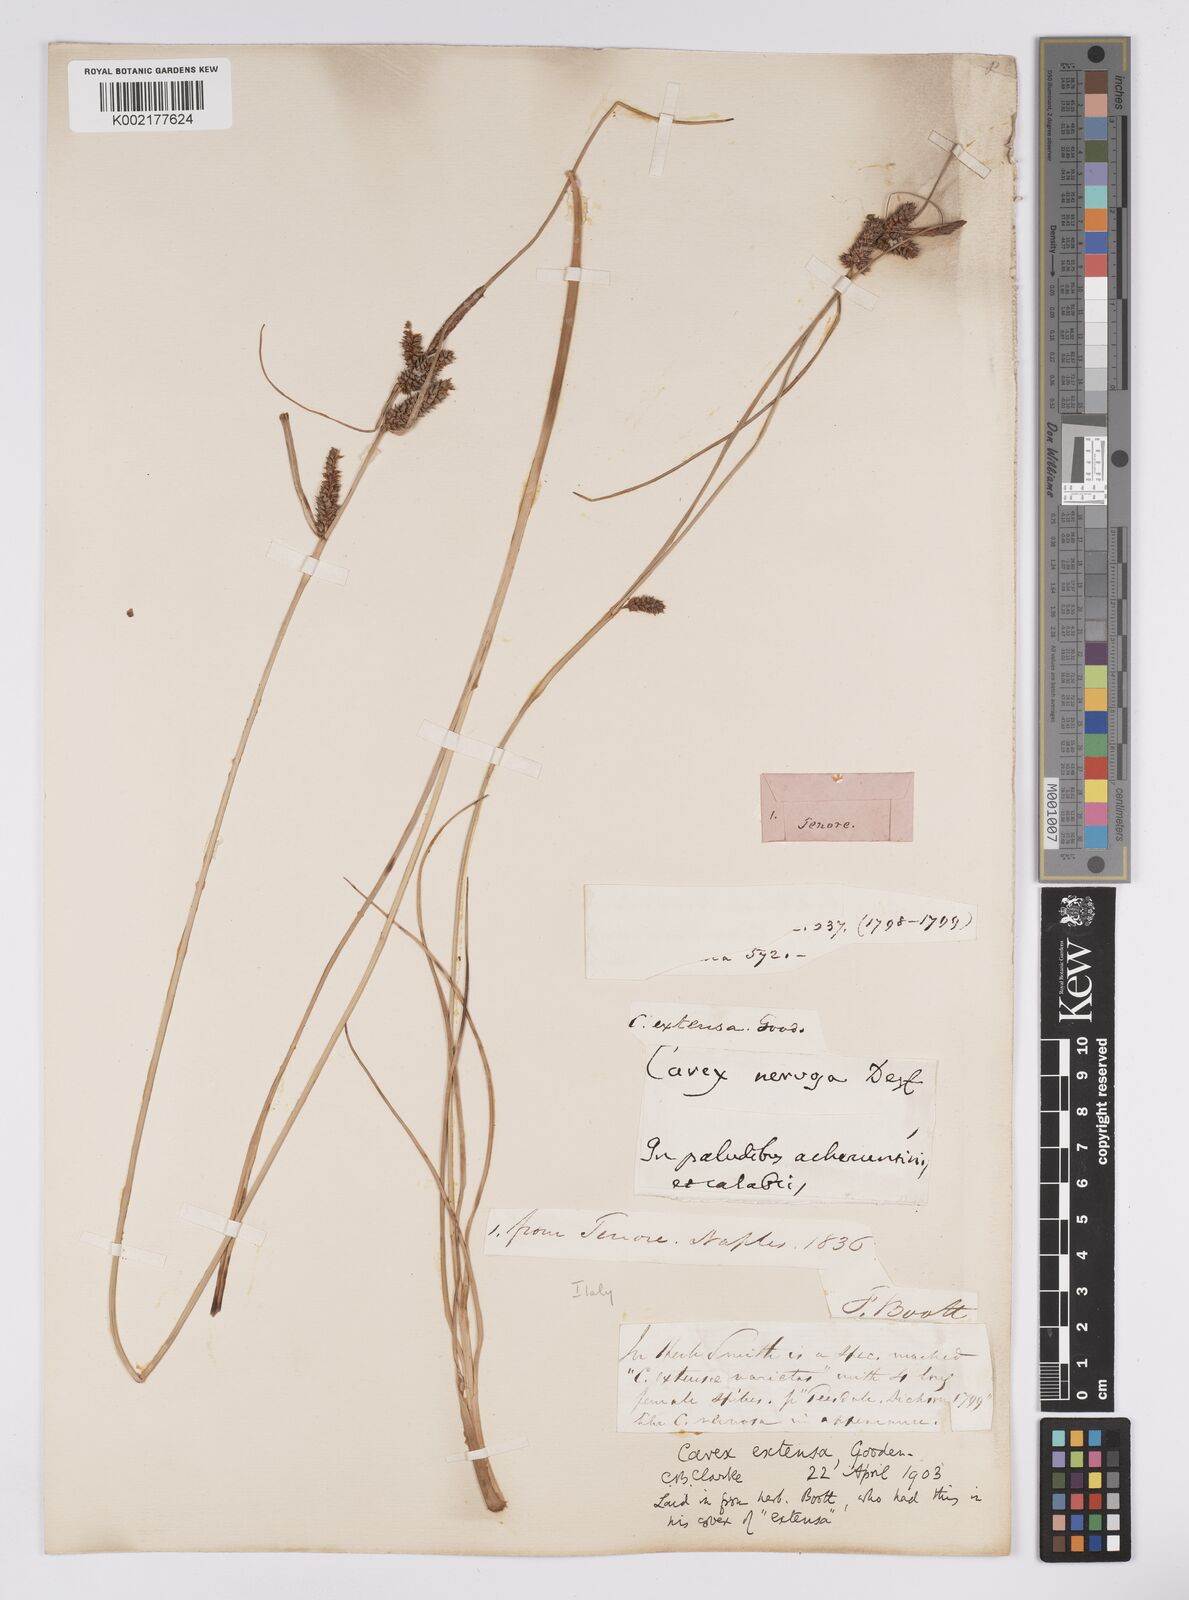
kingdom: Plantae
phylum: Tracheophyta
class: Liliopsida
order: Poales
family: Cyperaceae
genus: Carex
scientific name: Carex extensa
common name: Long-bracted sedge
